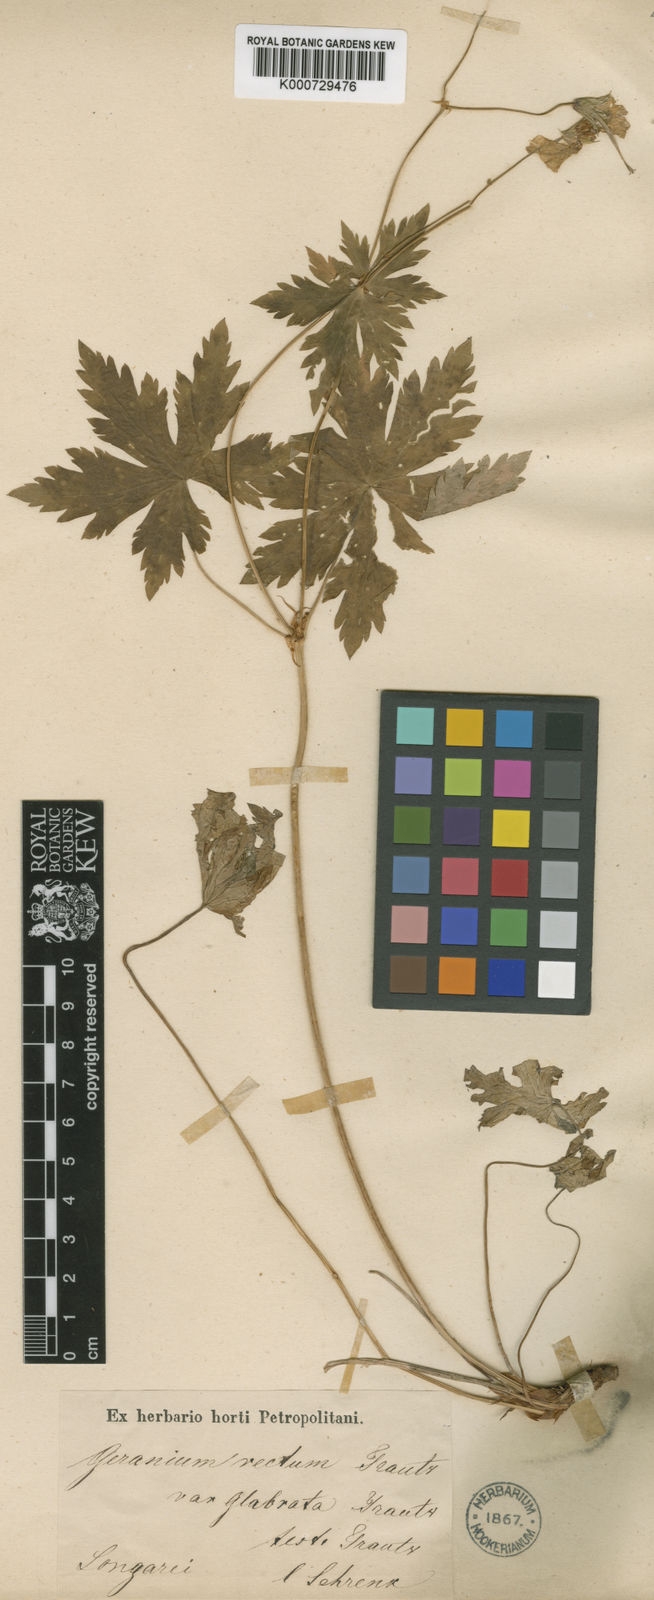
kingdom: Plantae
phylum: Tracheophyta
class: Magnoliopsida
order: Geraniales
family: Geraniaceae
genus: Geranium
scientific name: Geranium rectum
